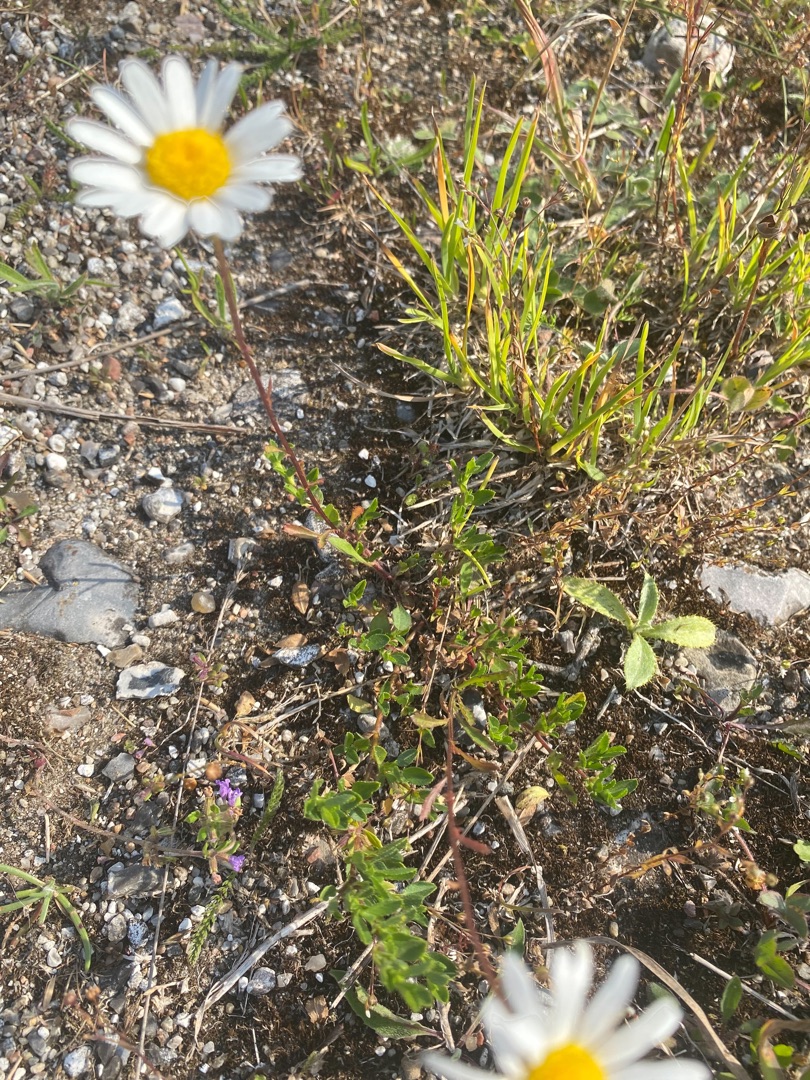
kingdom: Plantae
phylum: Tracheophyta
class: Magnoliopsida
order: Asterales
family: Asteraceae
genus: Leucanthemum
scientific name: Leucanthemum vulgare
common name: Hvid okseøje
